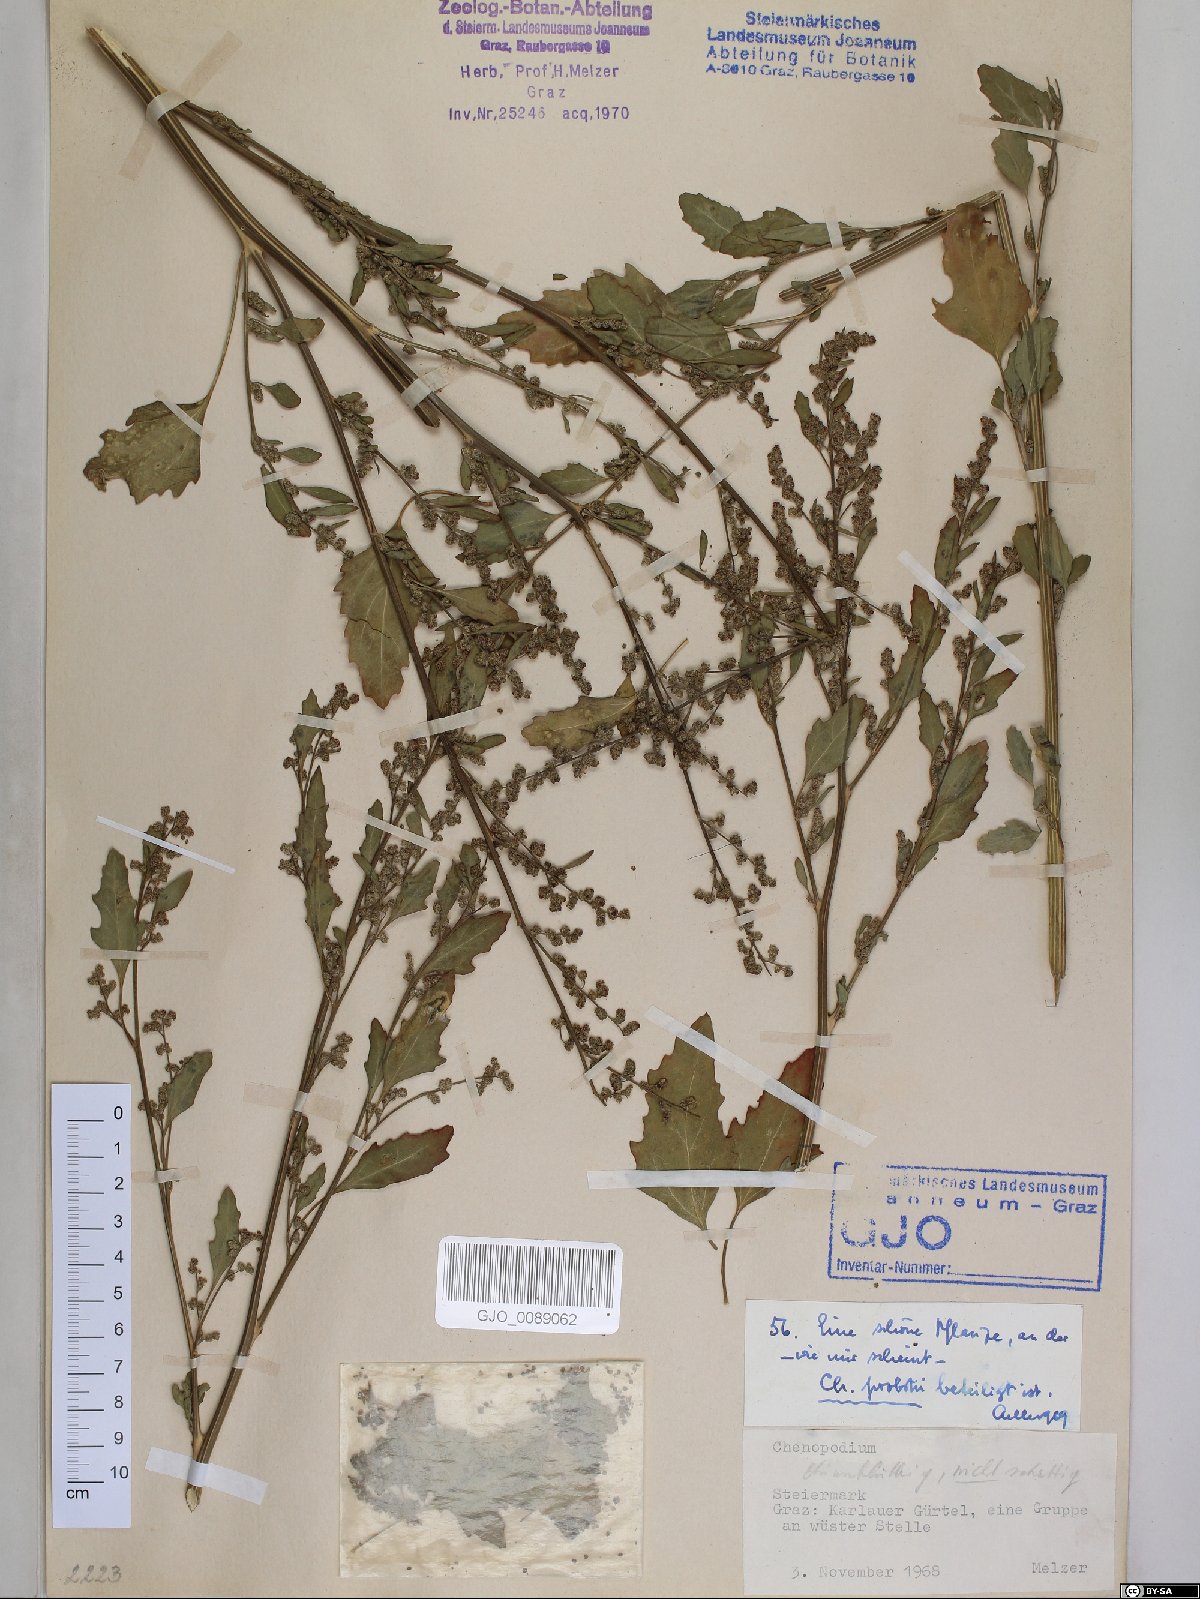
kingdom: Plantae
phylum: Tracheophyta
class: Magnoliopsida
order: Caryophyllales
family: Amaranthaceae
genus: Chenopodium
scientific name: Chenopodium probstii
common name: Probst's goosefoot
